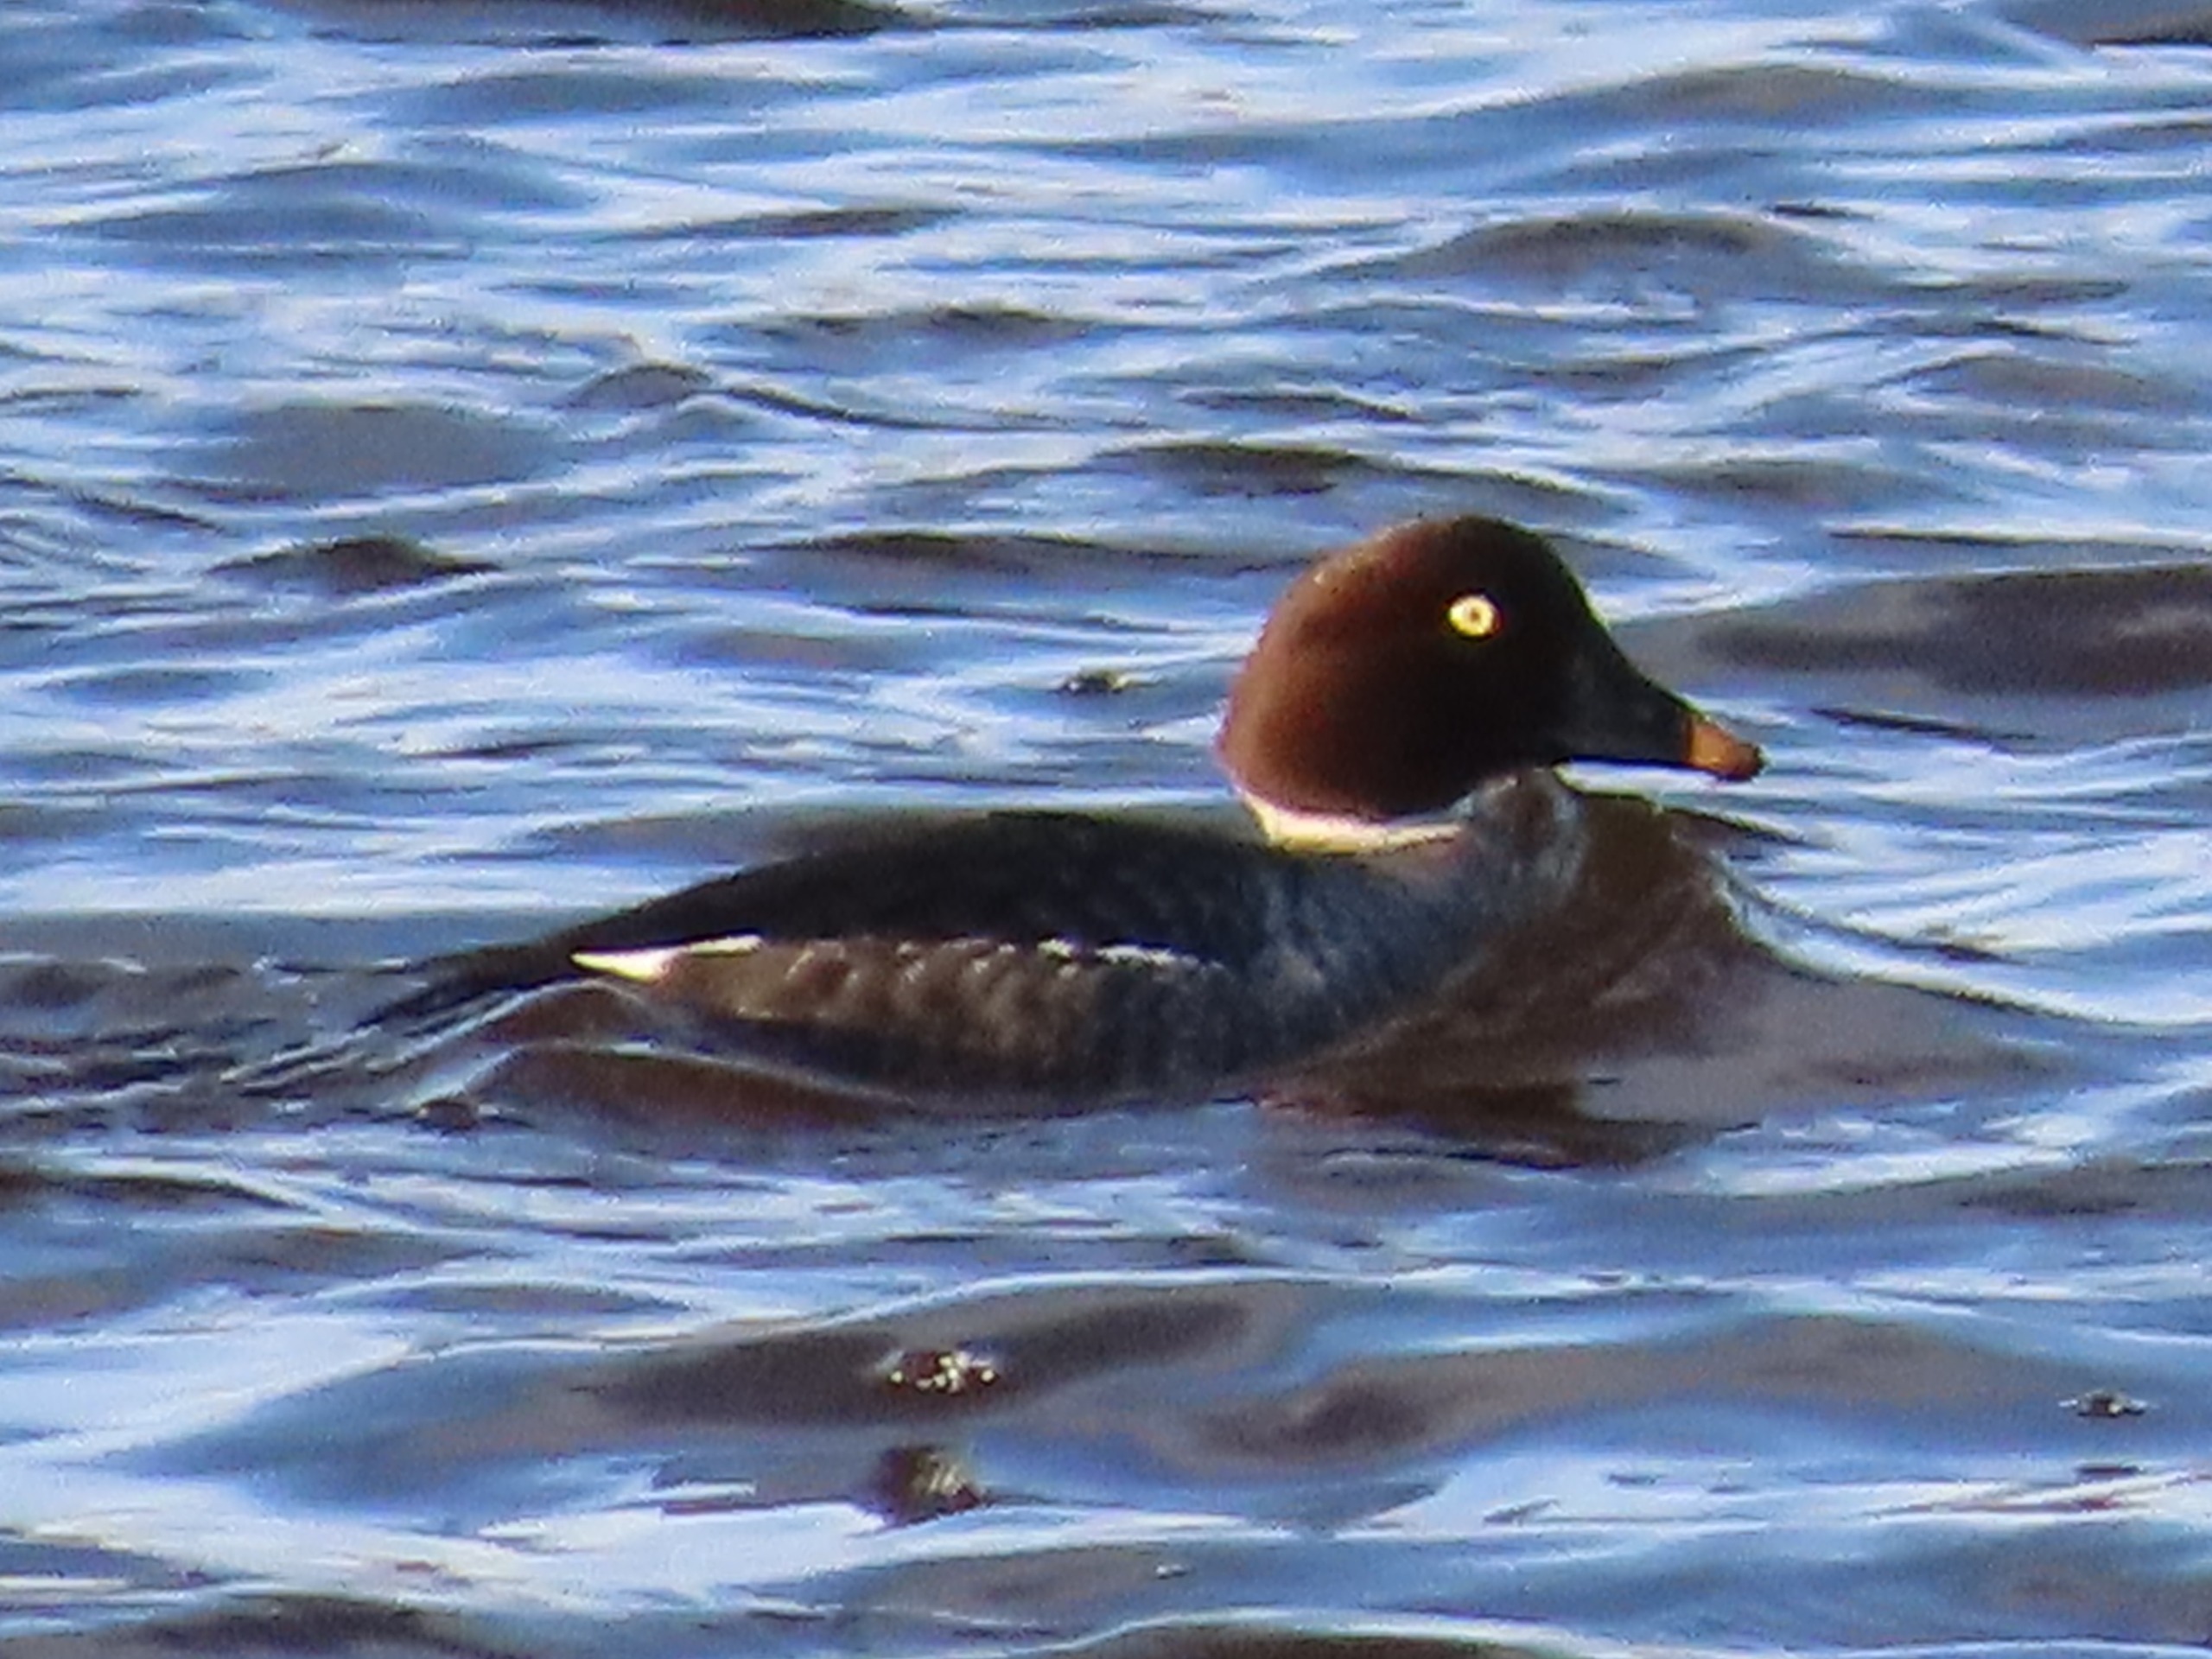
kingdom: Animalia
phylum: Chordata
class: Aves
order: Anseriformes
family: Anatidae
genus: Bucephala
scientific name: Bucephala clangula
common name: Hvinand
